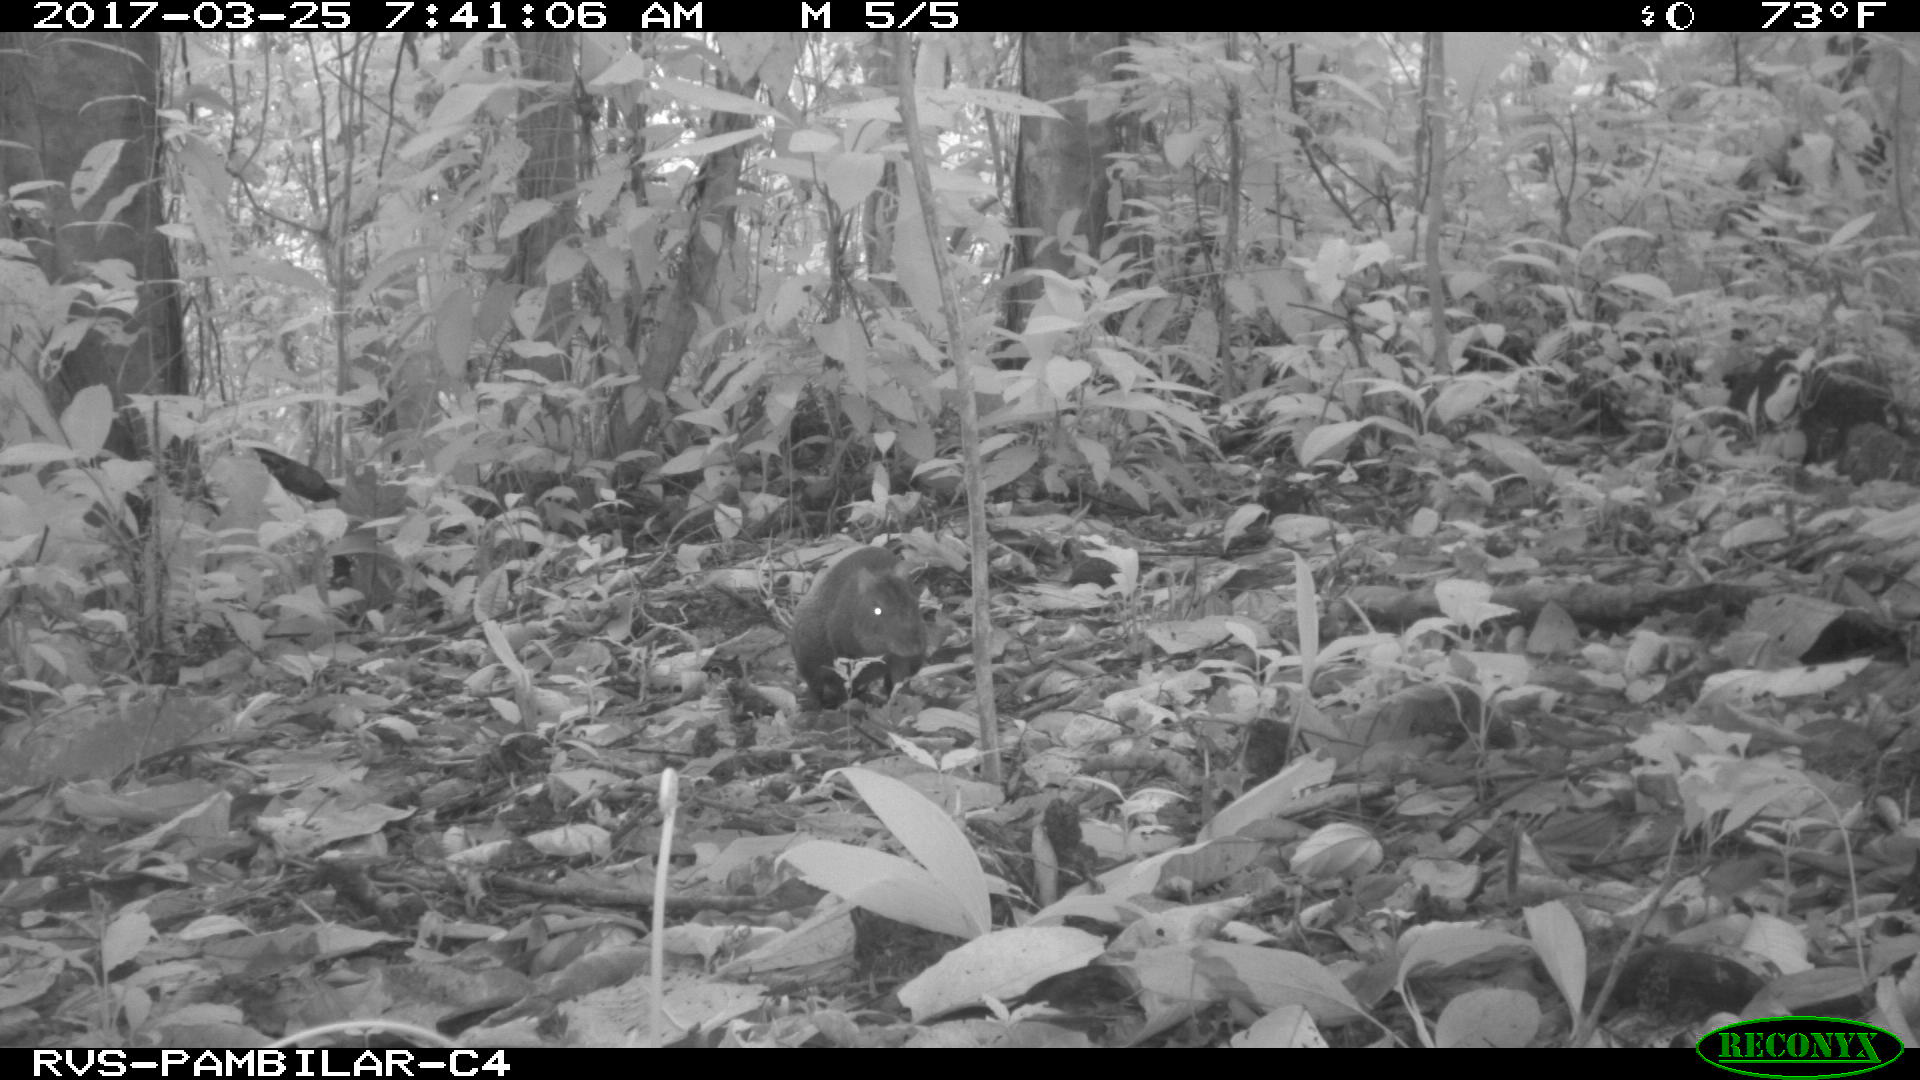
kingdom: Animalia
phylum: Chordata
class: Mammalia
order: Rodentia
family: Dasyproctidae
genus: Dasyprocta
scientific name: Dasyprocta punctata
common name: Central american agouti
